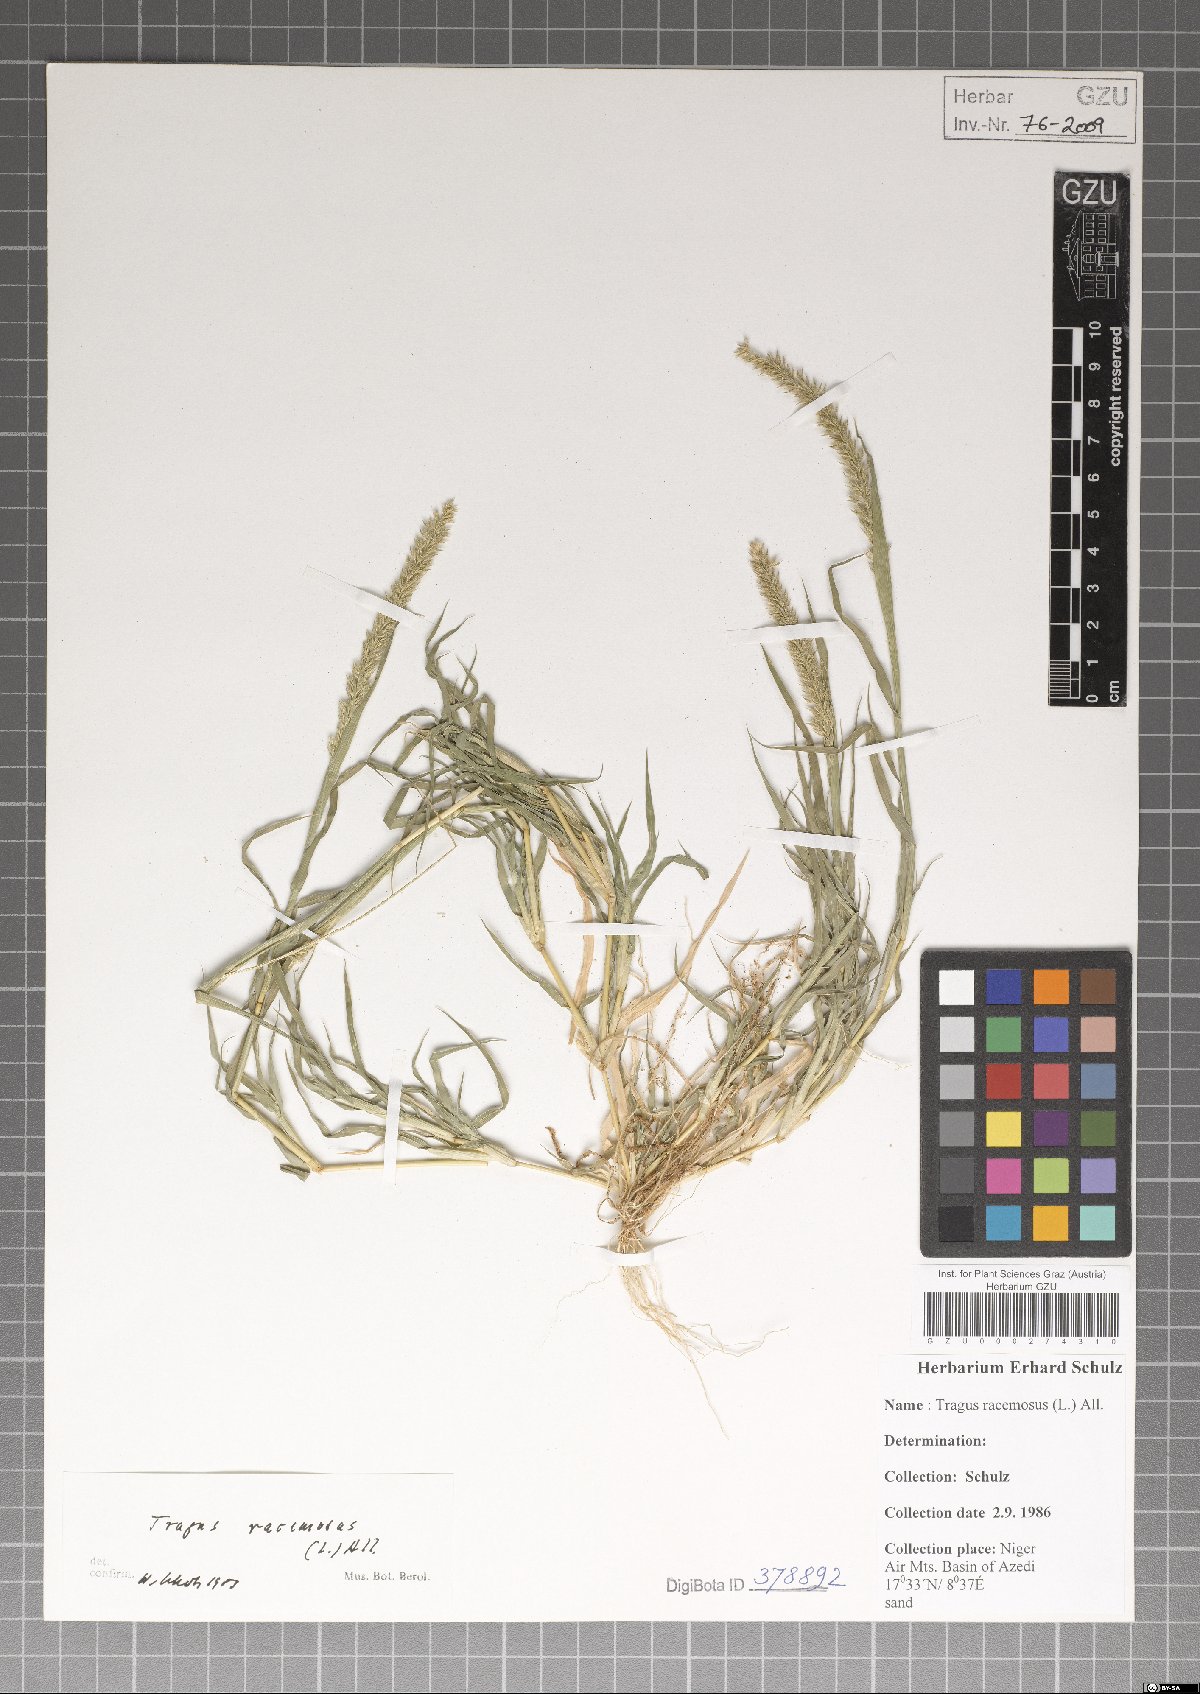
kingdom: Plantae
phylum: Tracheophyta
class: Liliopsida
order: Poales
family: Poaceae
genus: Tragus
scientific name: Tragus racemosus
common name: European bur-grass
